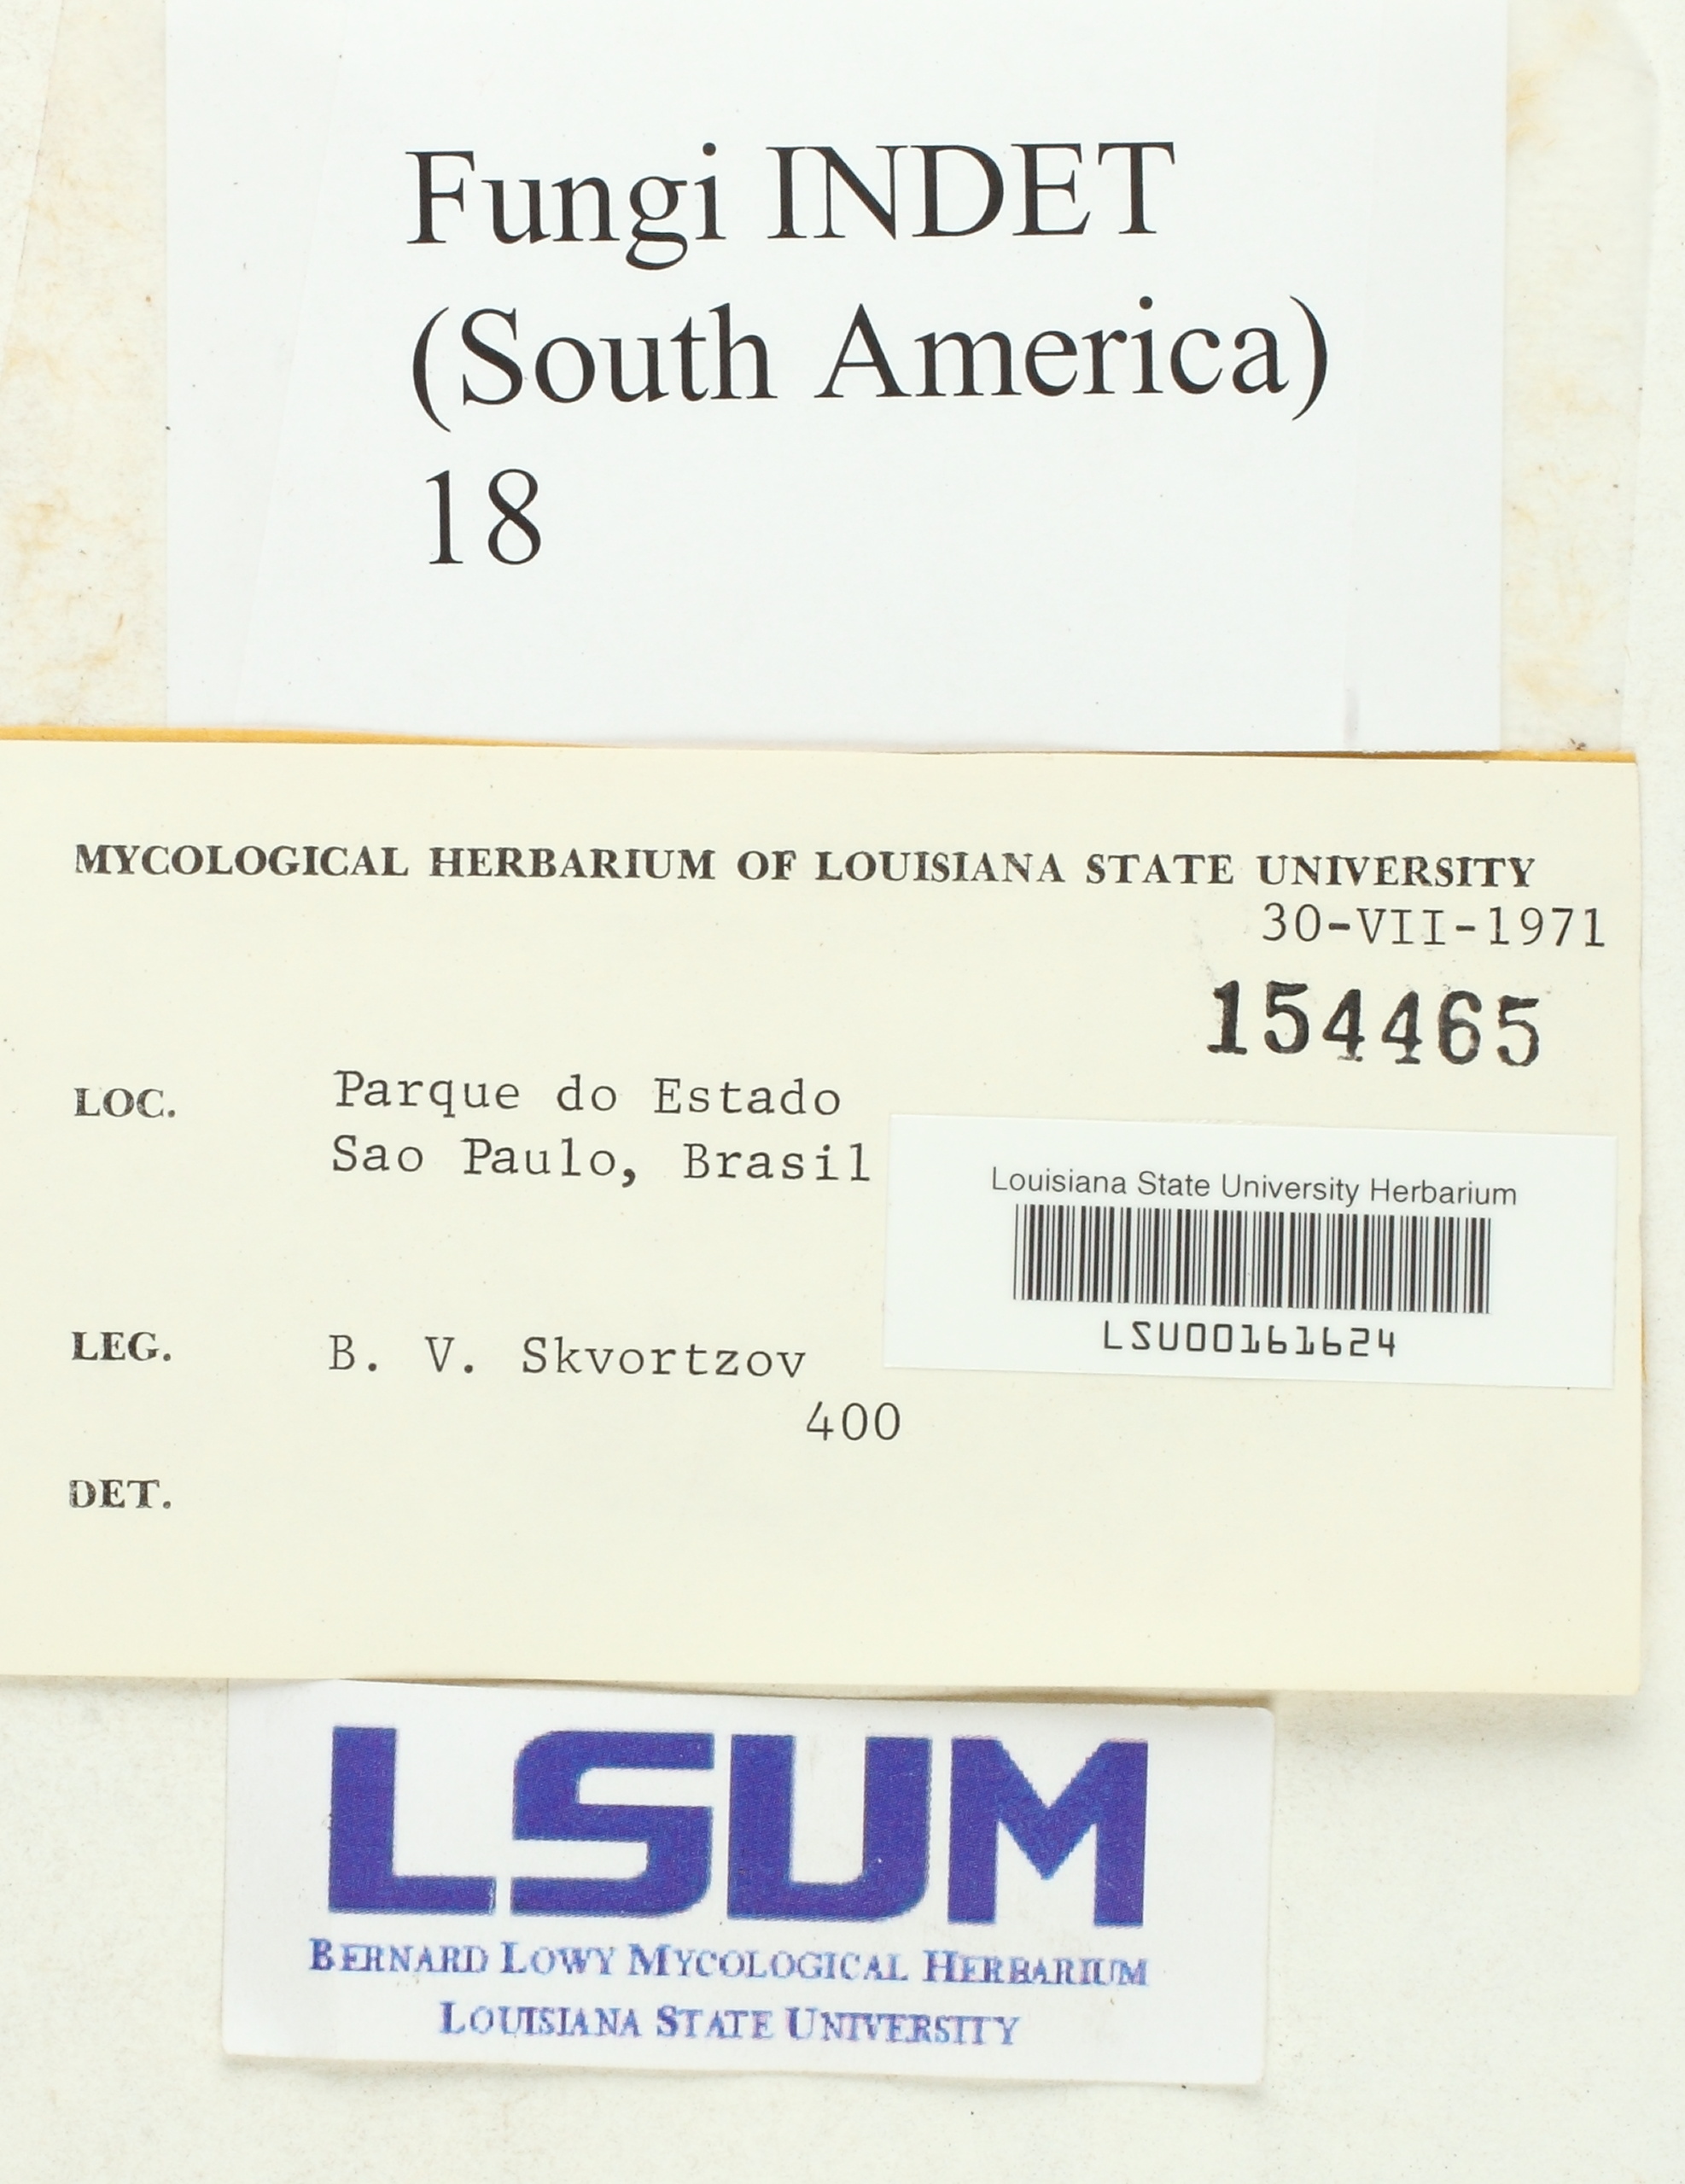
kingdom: Fungi
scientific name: Fungi
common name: Fungi
